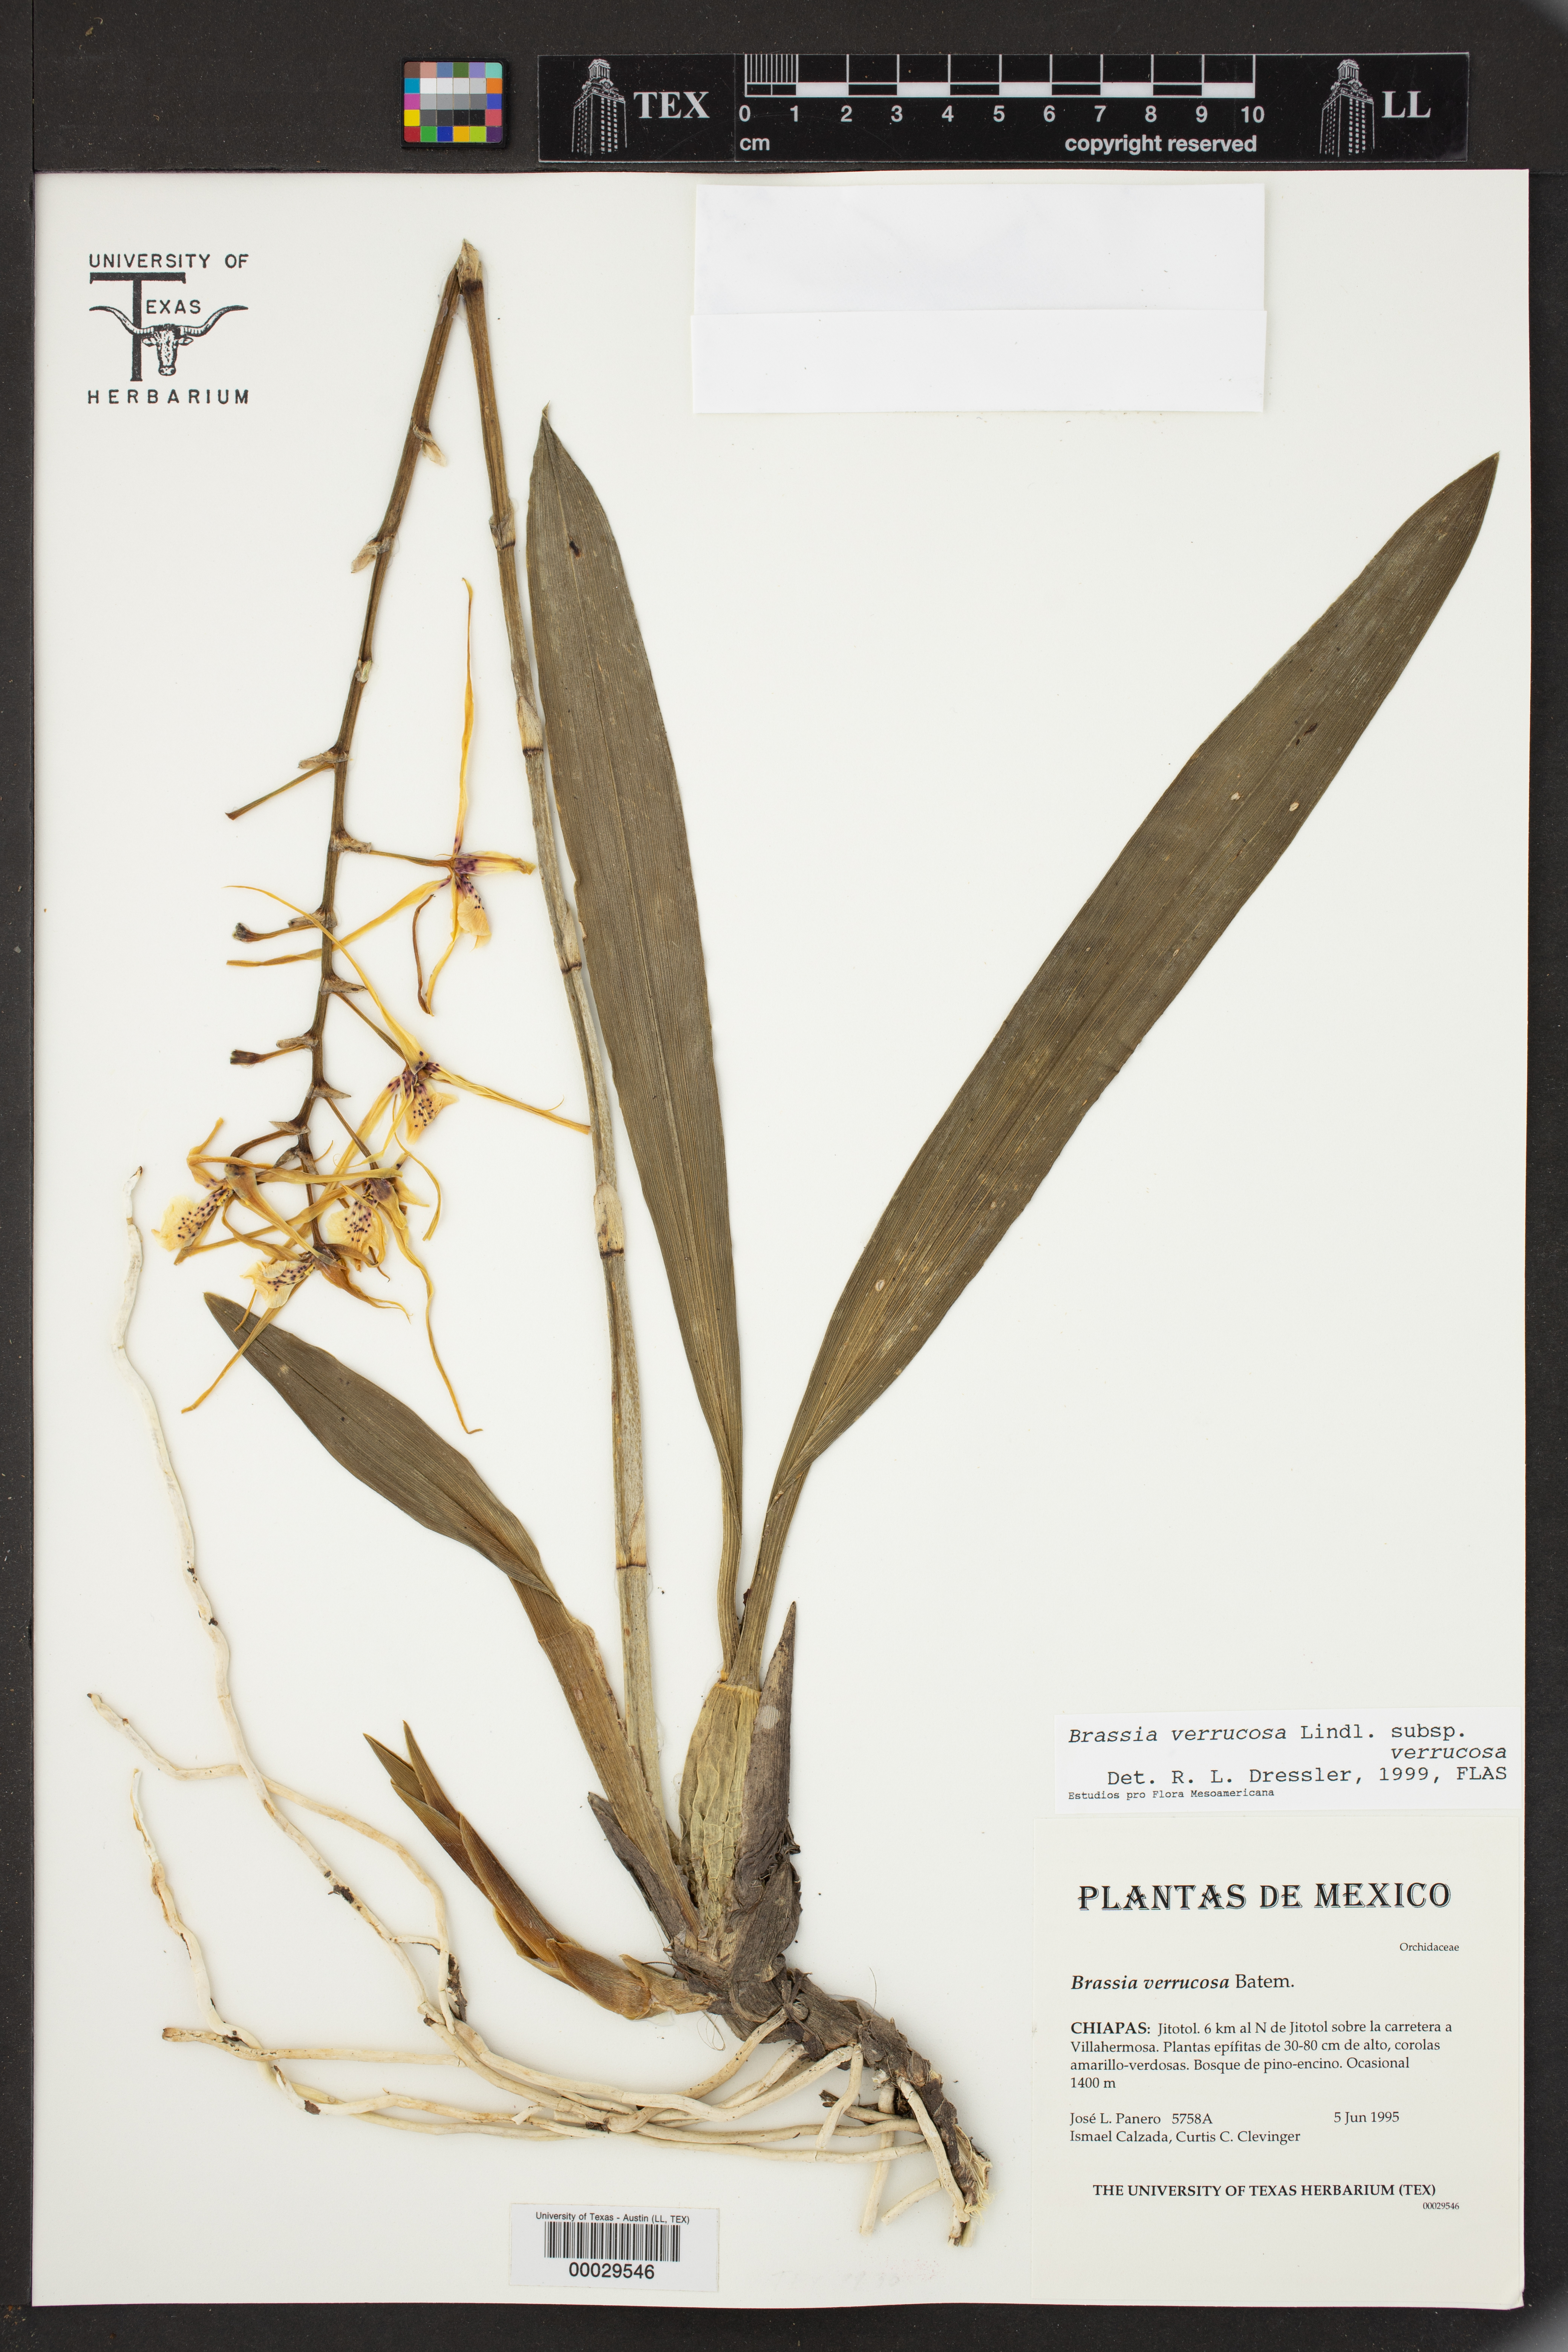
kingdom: Plantae
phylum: Tracheophyta
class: Liliopsida
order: Asparagales
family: Orchidaceae
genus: Brassia
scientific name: Brassia verrucosa
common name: Warty brassia
